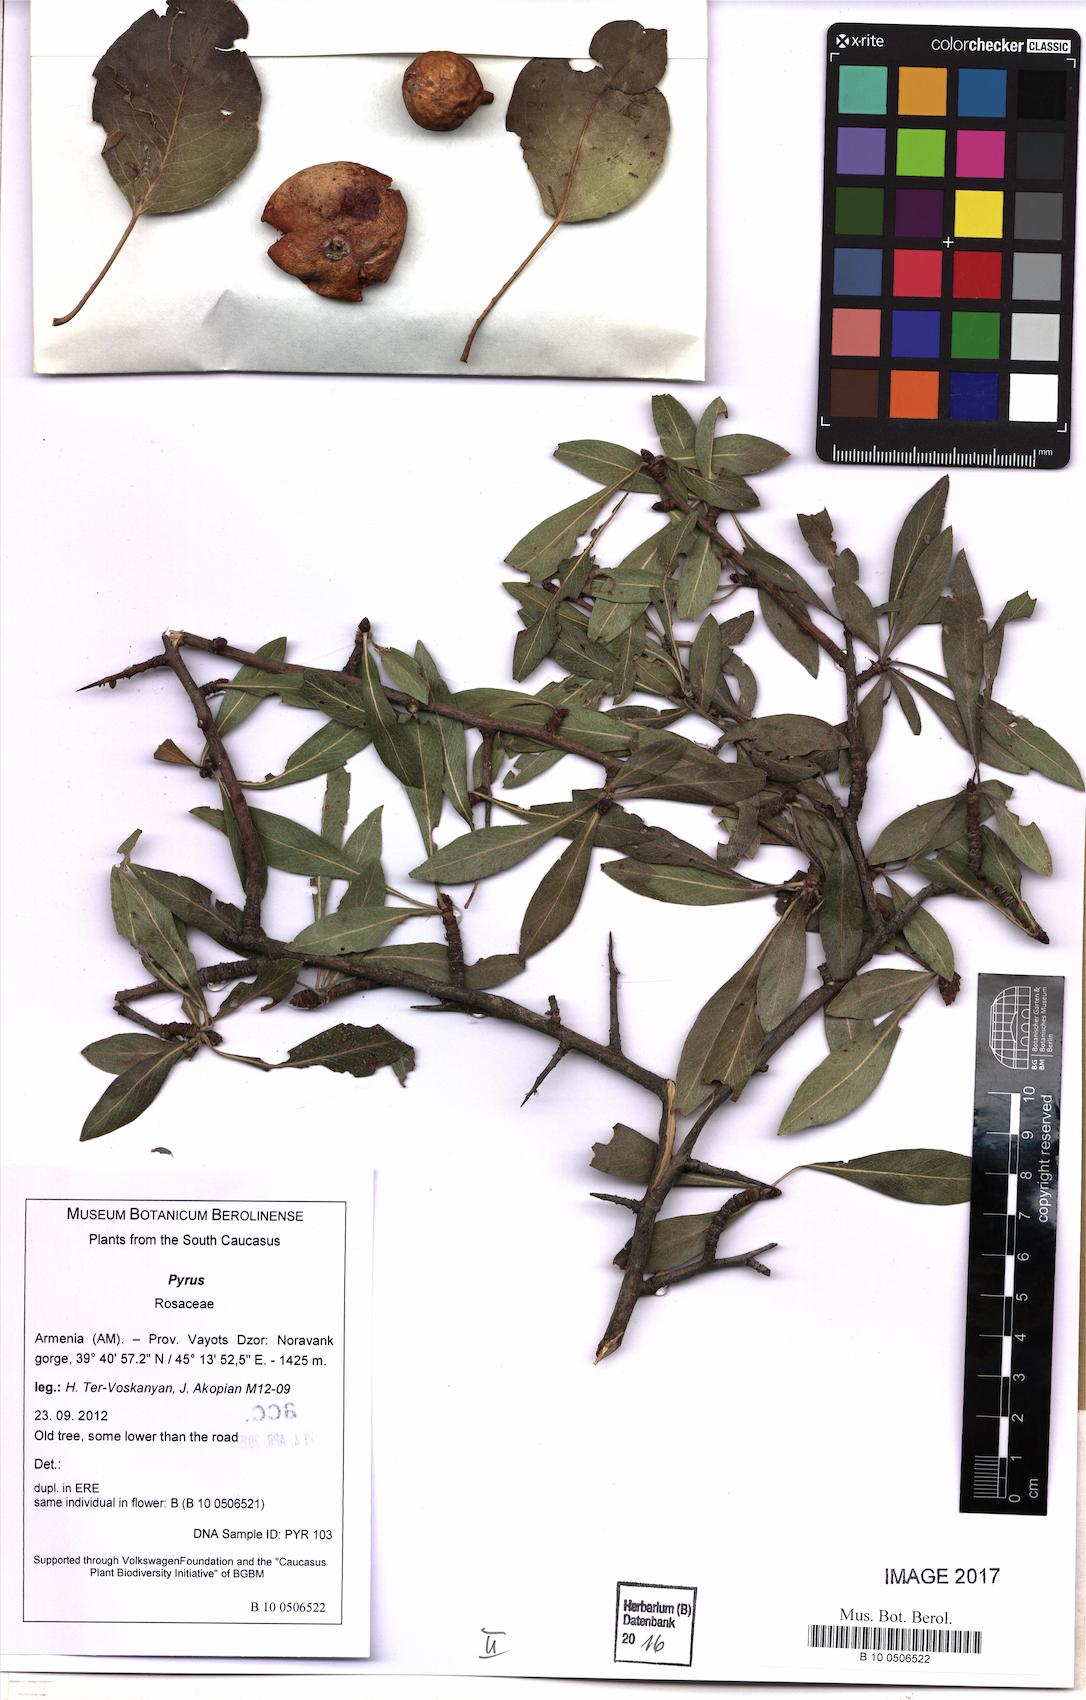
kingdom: Plantae
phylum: Tracheophyta
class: Magnoliopsida
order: Rosales
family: Rosaceae
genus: Pyrus
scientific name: Pyrus
